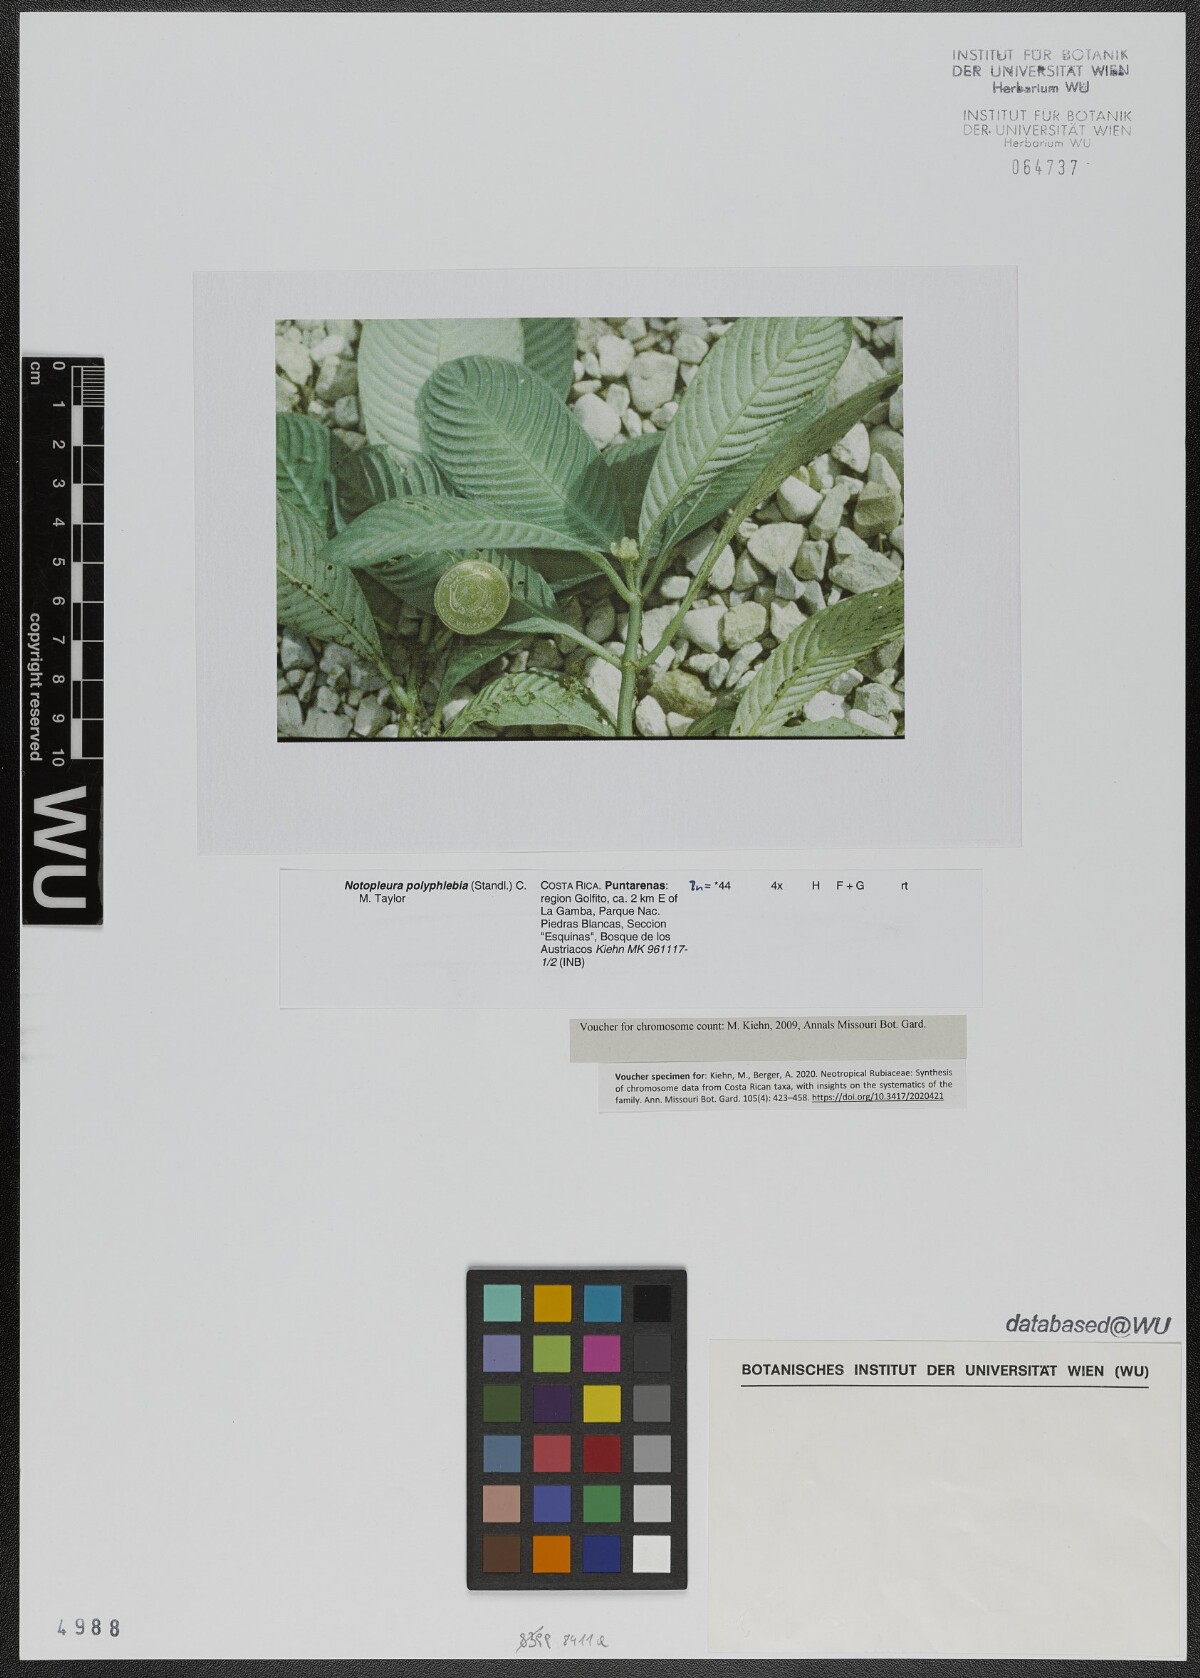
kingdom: Plantae
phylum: Tracheophyta
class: Magnoliopsida
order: Gentianales
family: Rubiaceae
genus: Notopleura
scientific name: Notopleura polyphlebia
